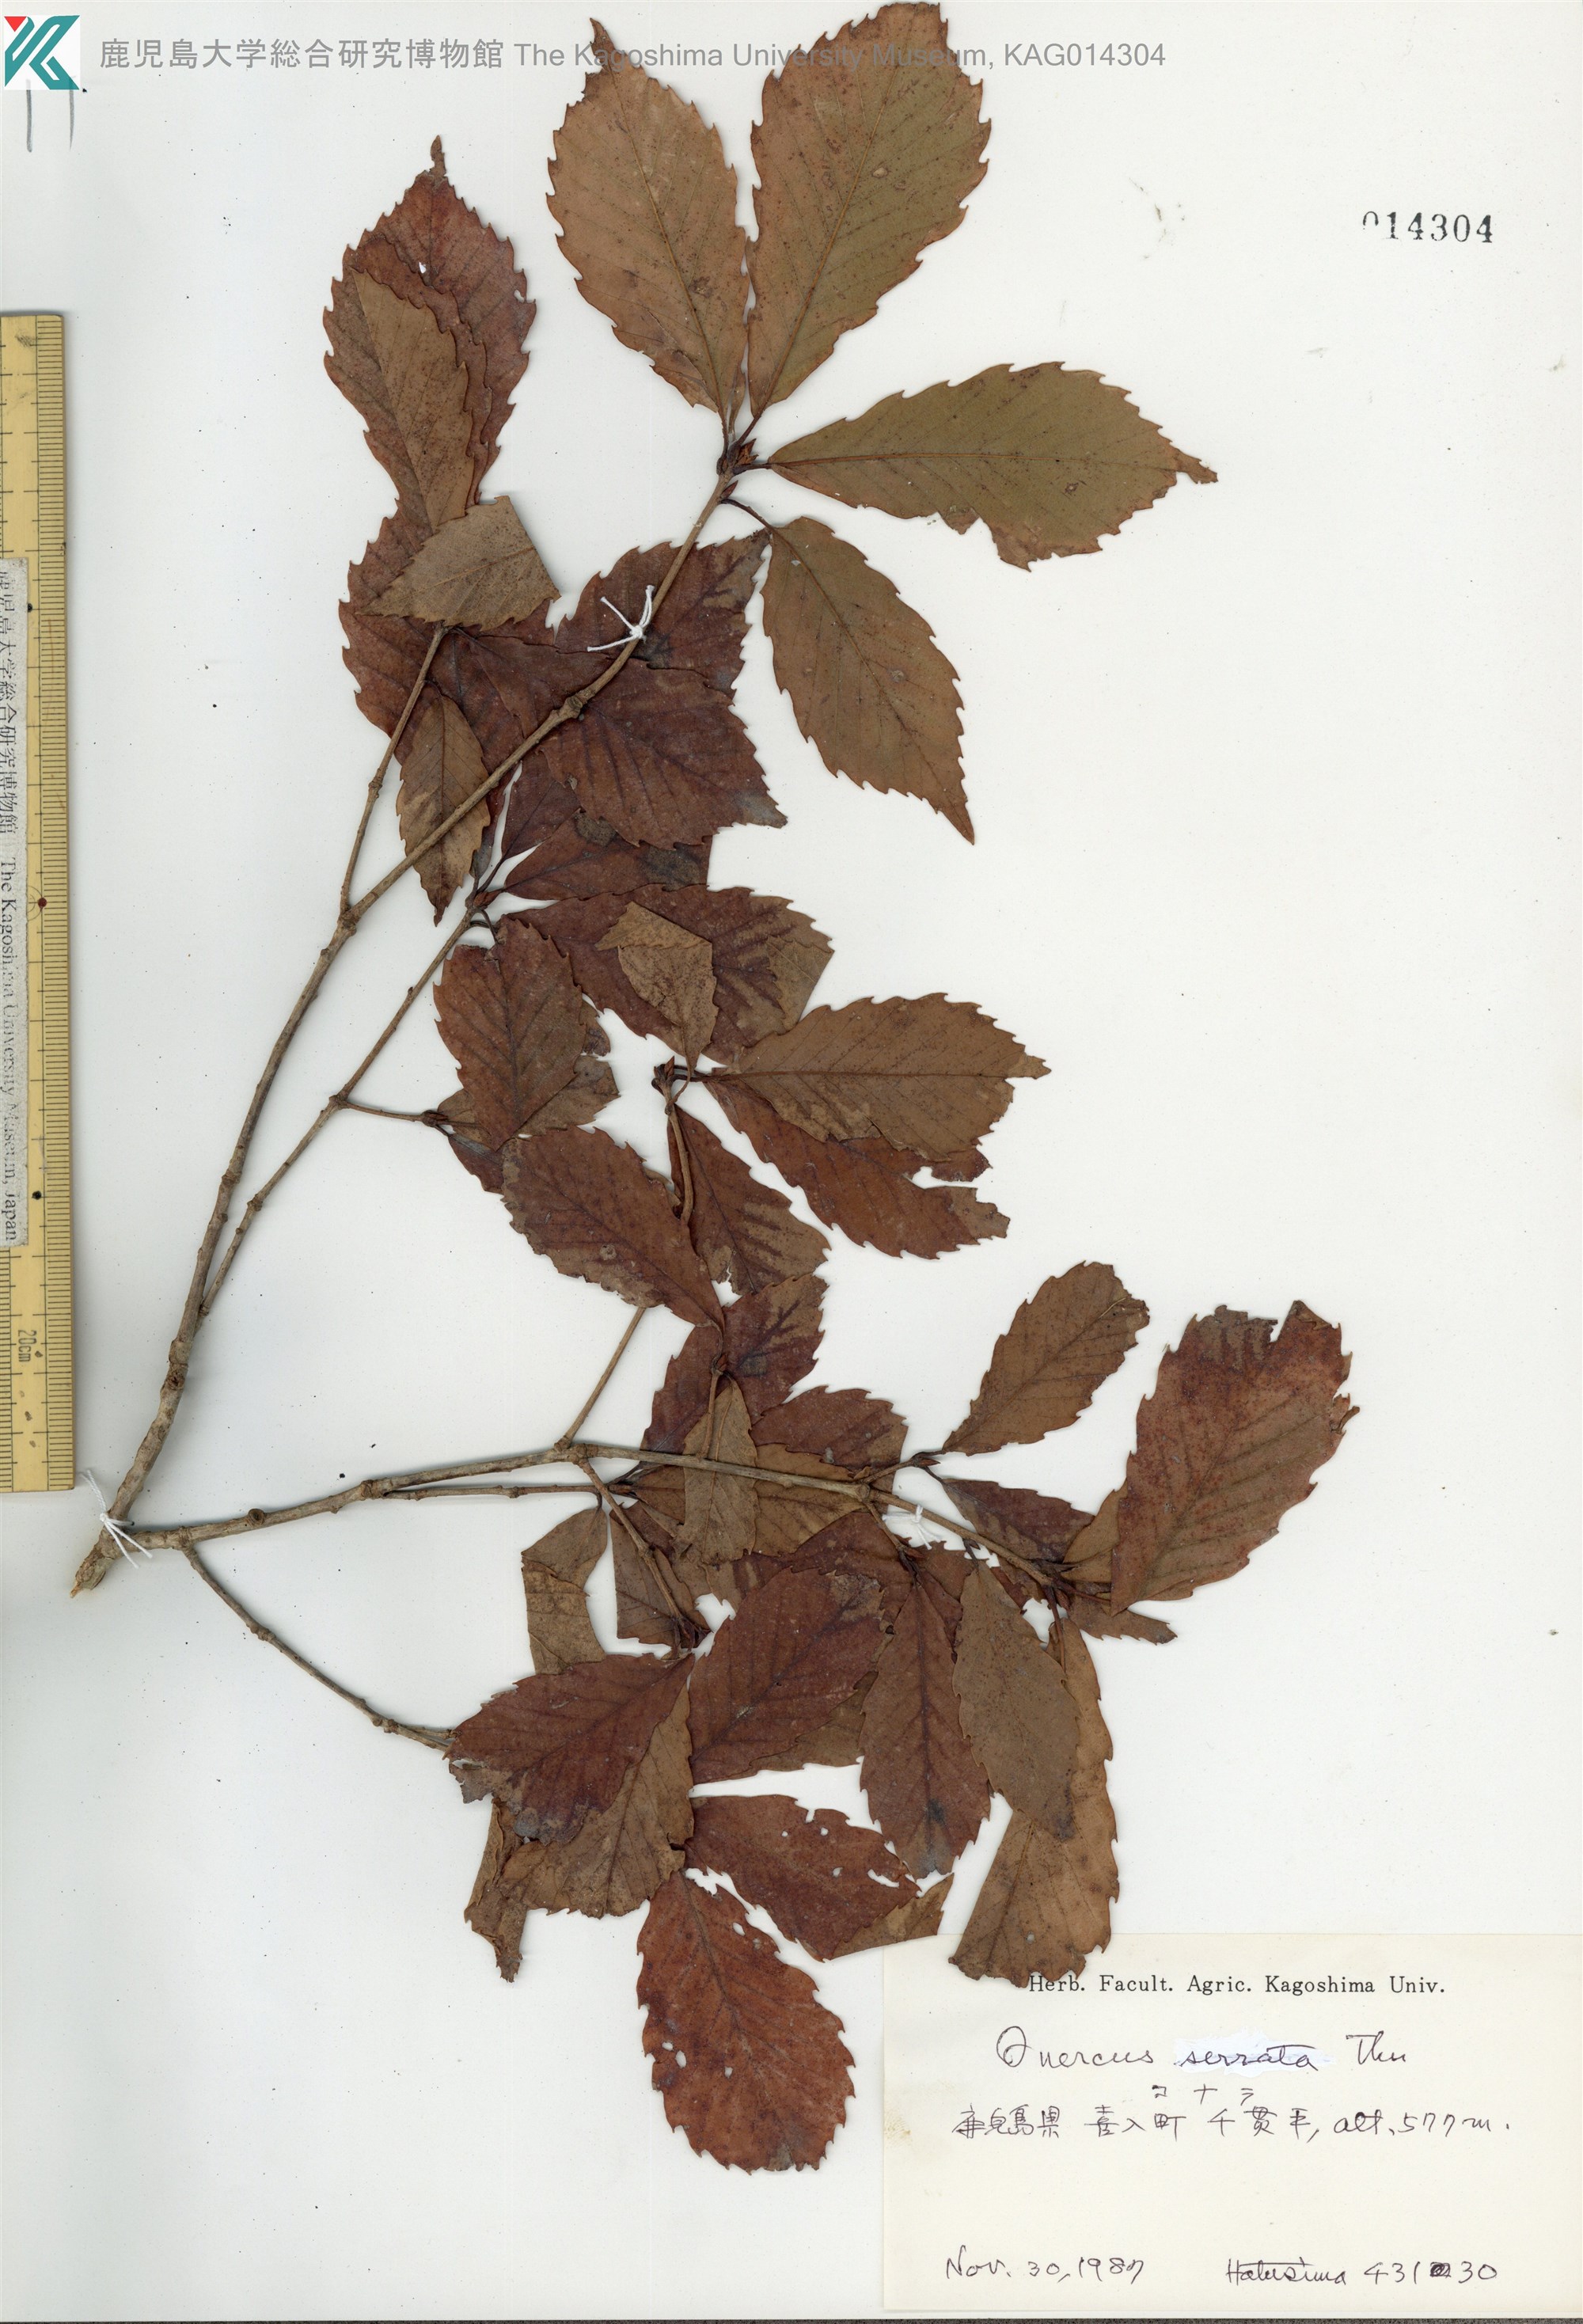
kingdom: Plantae
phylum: Tracheophyta
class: Magnoliopsida
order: Fagales
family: Fagaceae
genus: Quercus
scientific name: Quercus serrata
